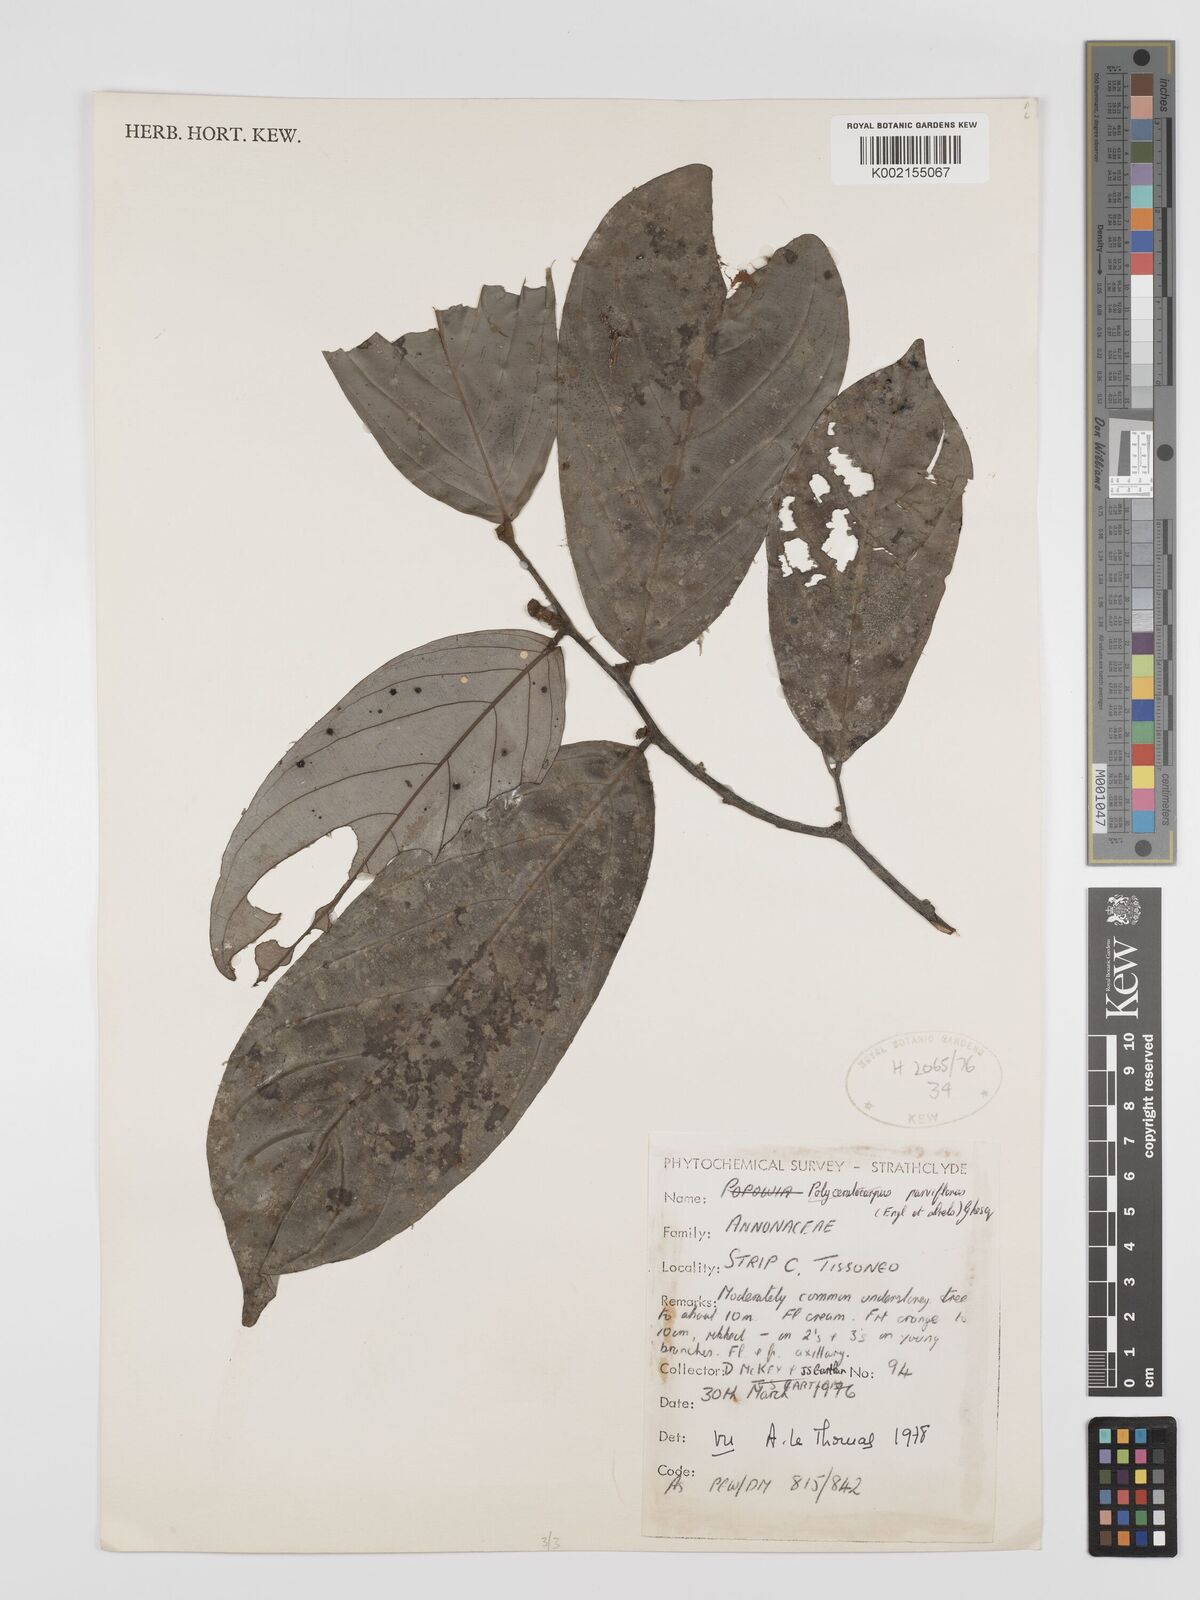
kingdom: Plantae
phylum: Tracheophyta
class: Magnoliopsida
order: Magnoliales
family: Annonaceae
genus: Polyceratocarpus
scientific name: Polyceratocarpus parviflorus
